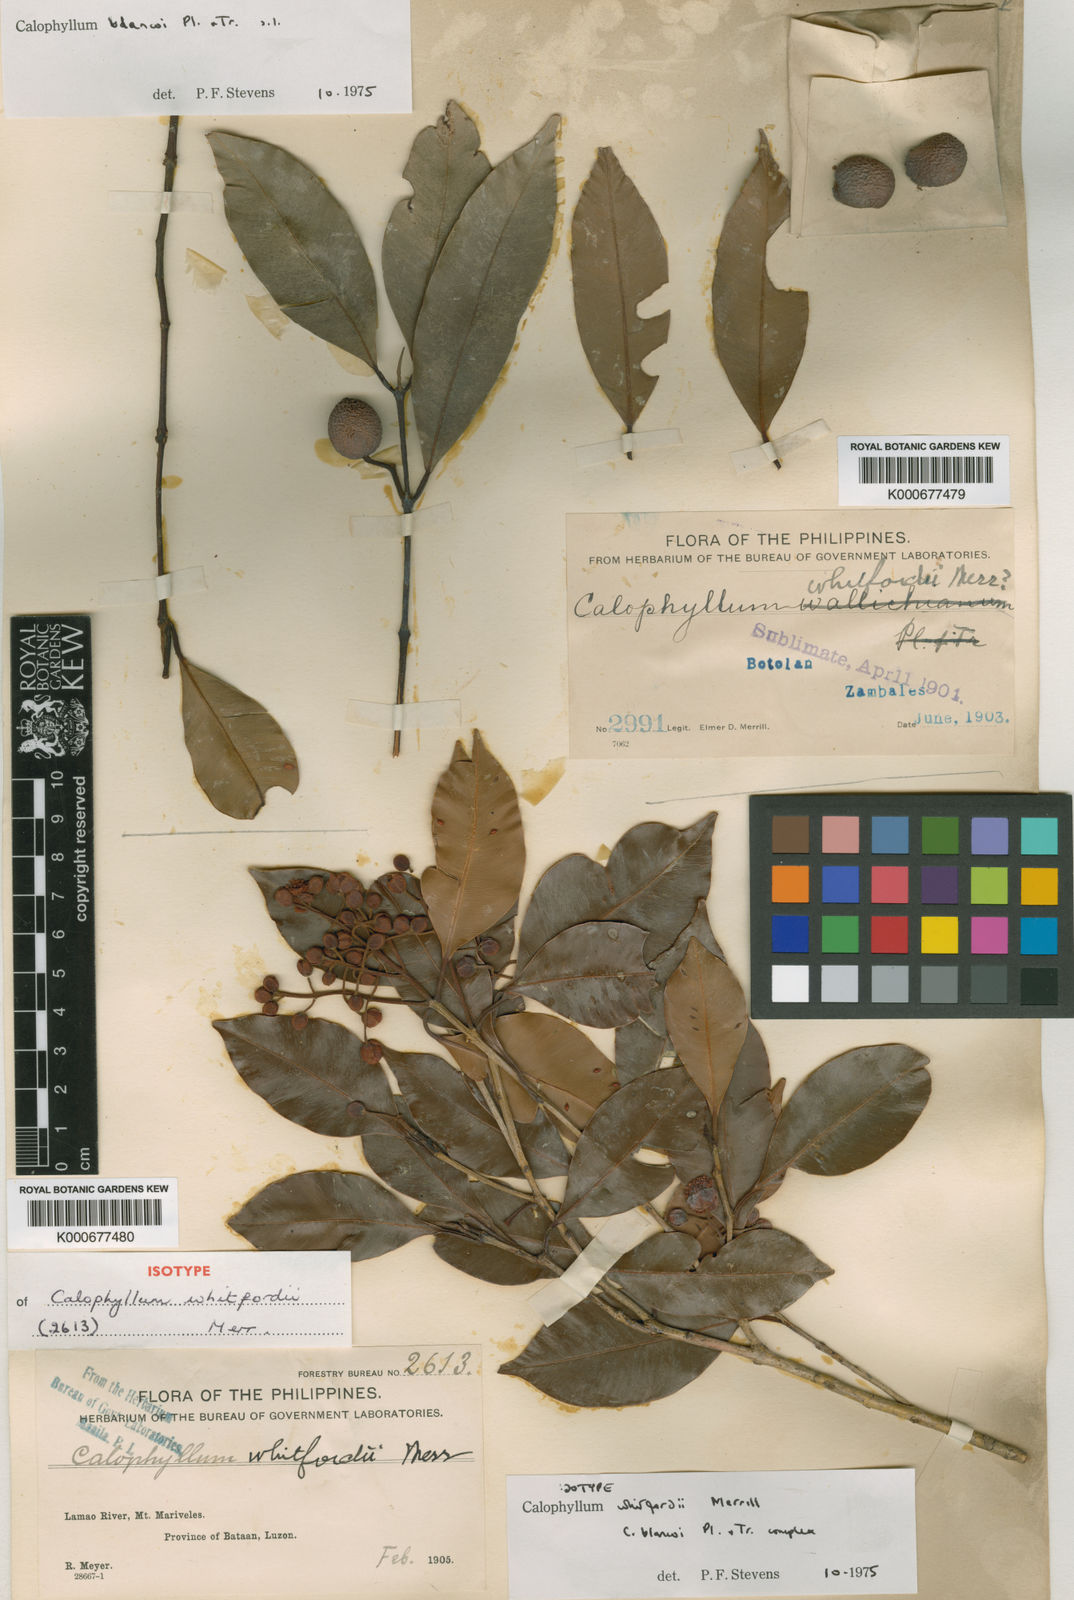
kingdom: Plantae
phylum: Tracheophyta
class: Magnoliopsida
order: Malpighiales
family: Calophyllaceae
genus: Calophyllum
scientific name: Calophyllum whitfordii
